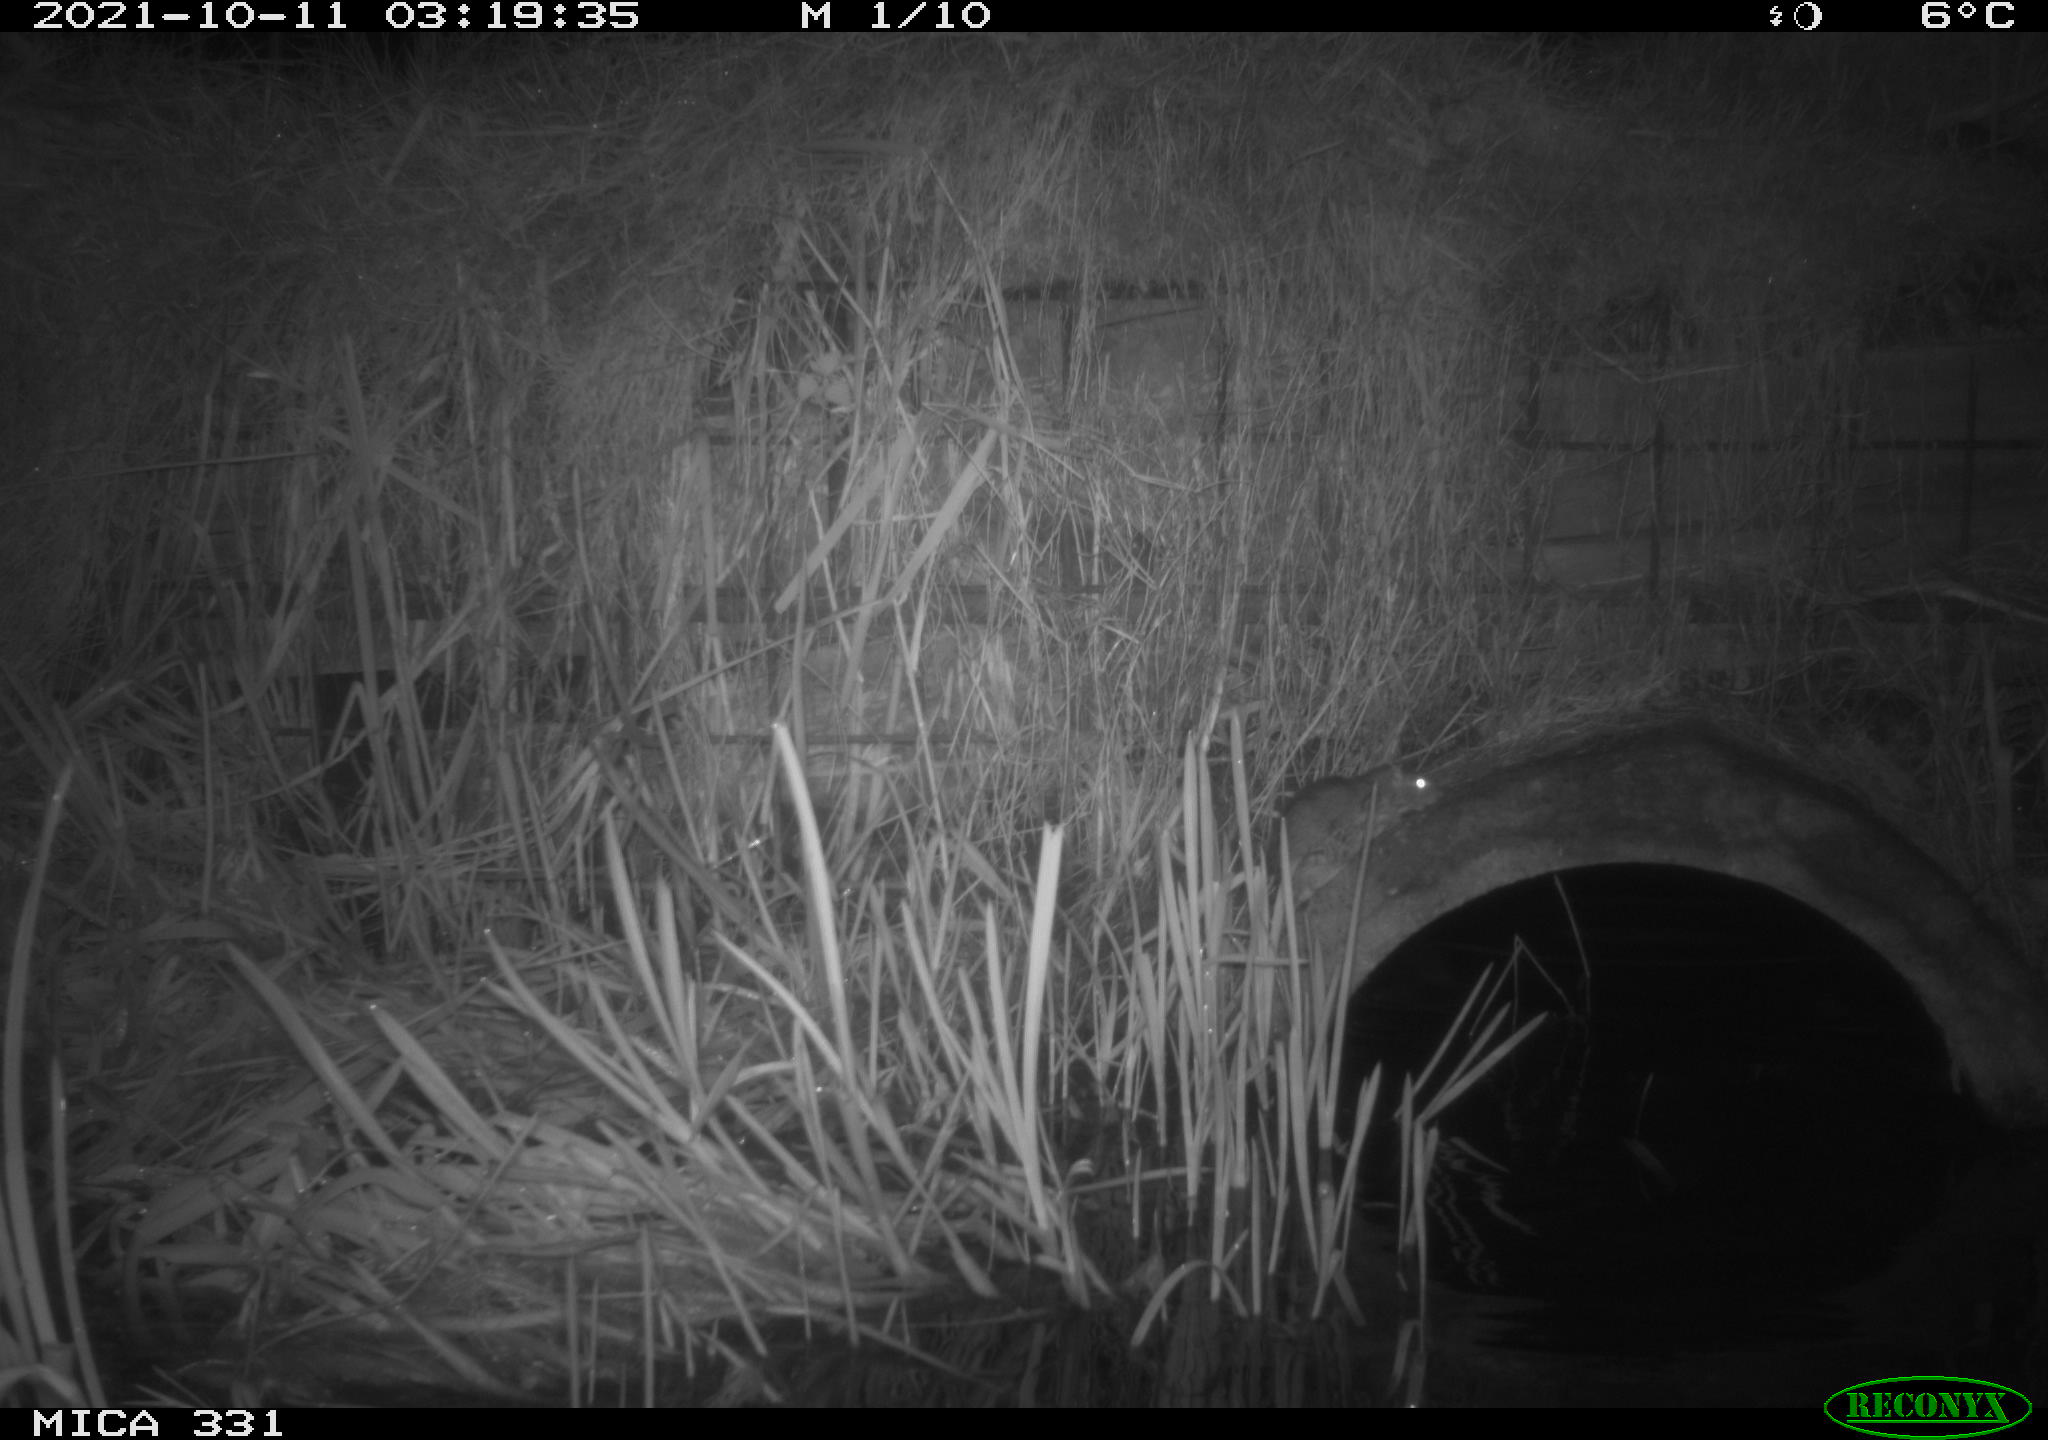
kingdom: Animalia
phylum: Chordata
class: Mammalia
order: Rodentia
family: Muridae
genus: Rattus
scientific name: Rattus norvegicus
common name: Brown rat
